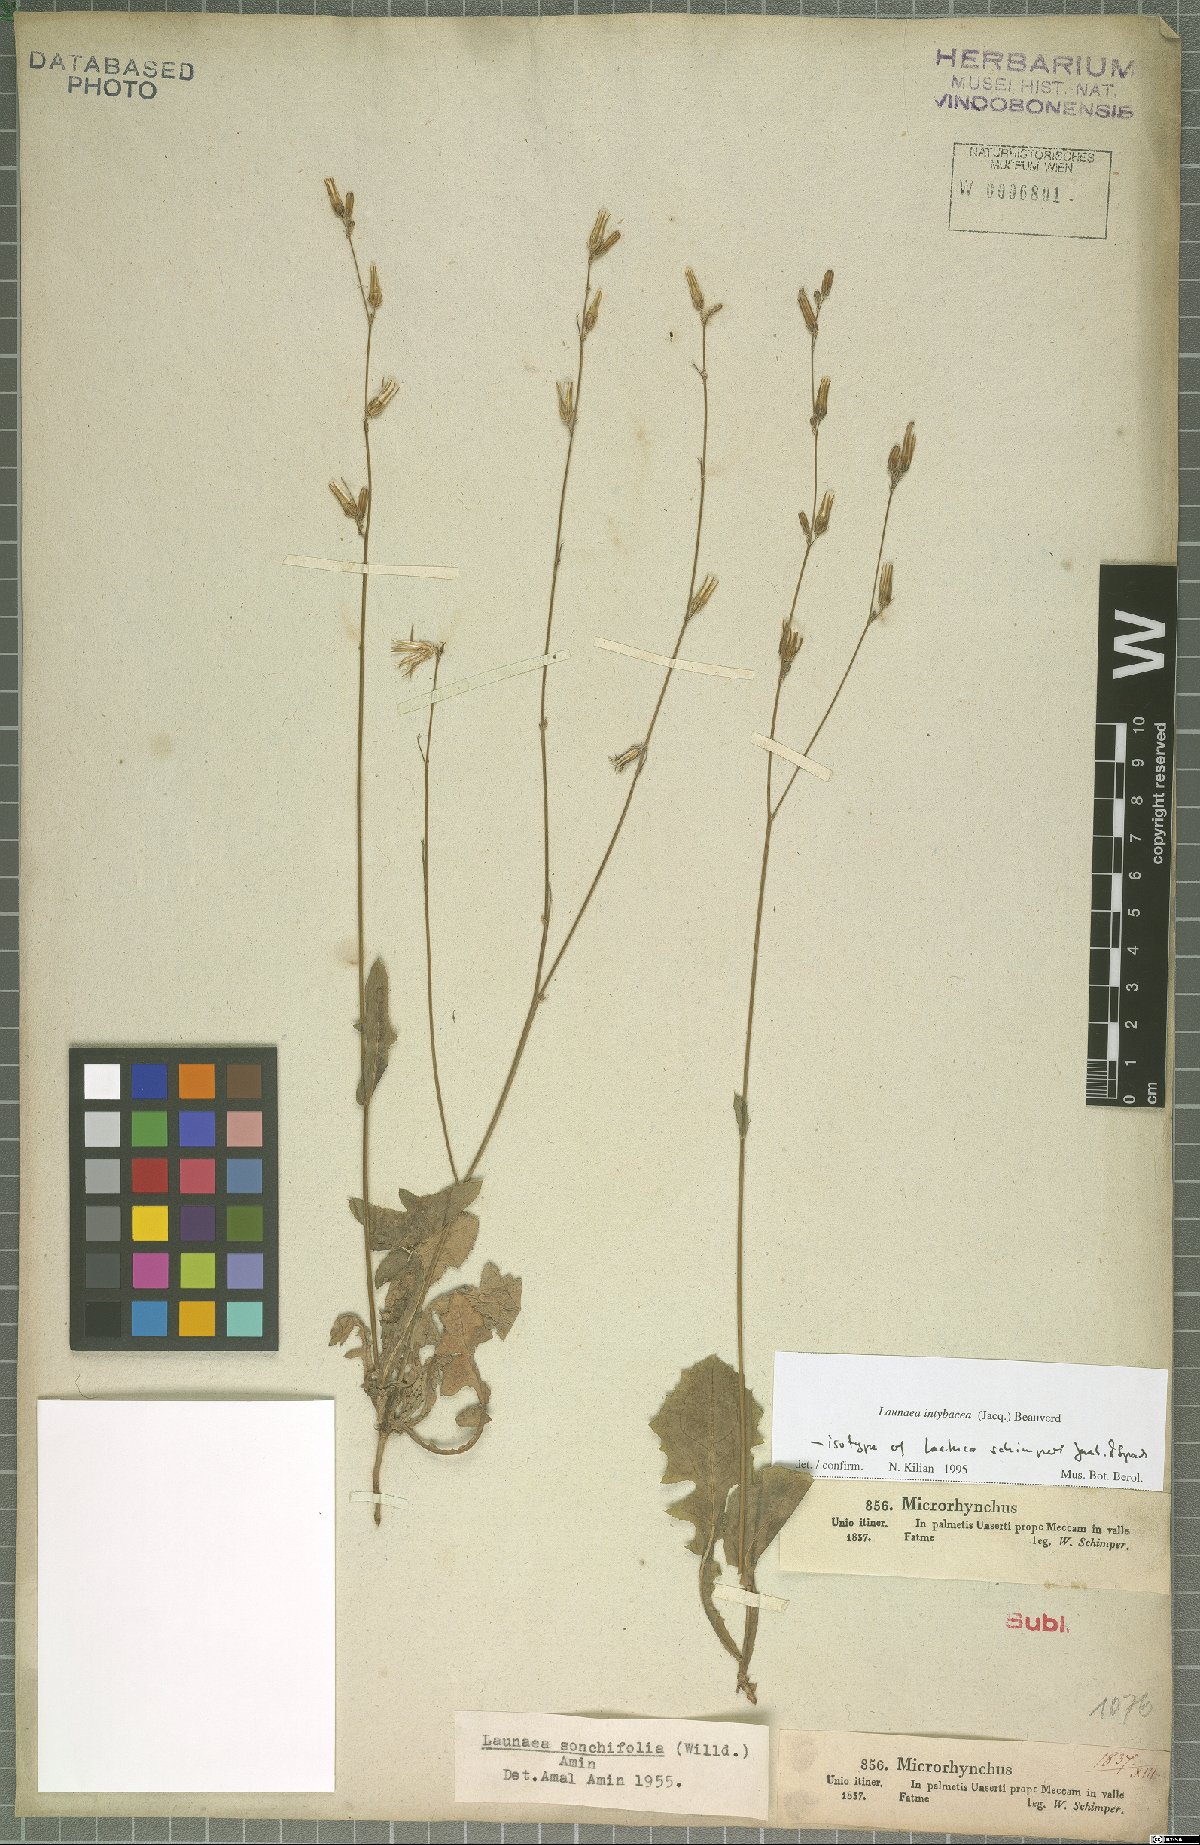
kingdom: Plantae
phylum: Tracheophyta
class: Magnoliopsida
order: Asterales
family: Asteraceae
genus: Launaea
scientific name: Launaea intybacea
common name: Achicoria azul
